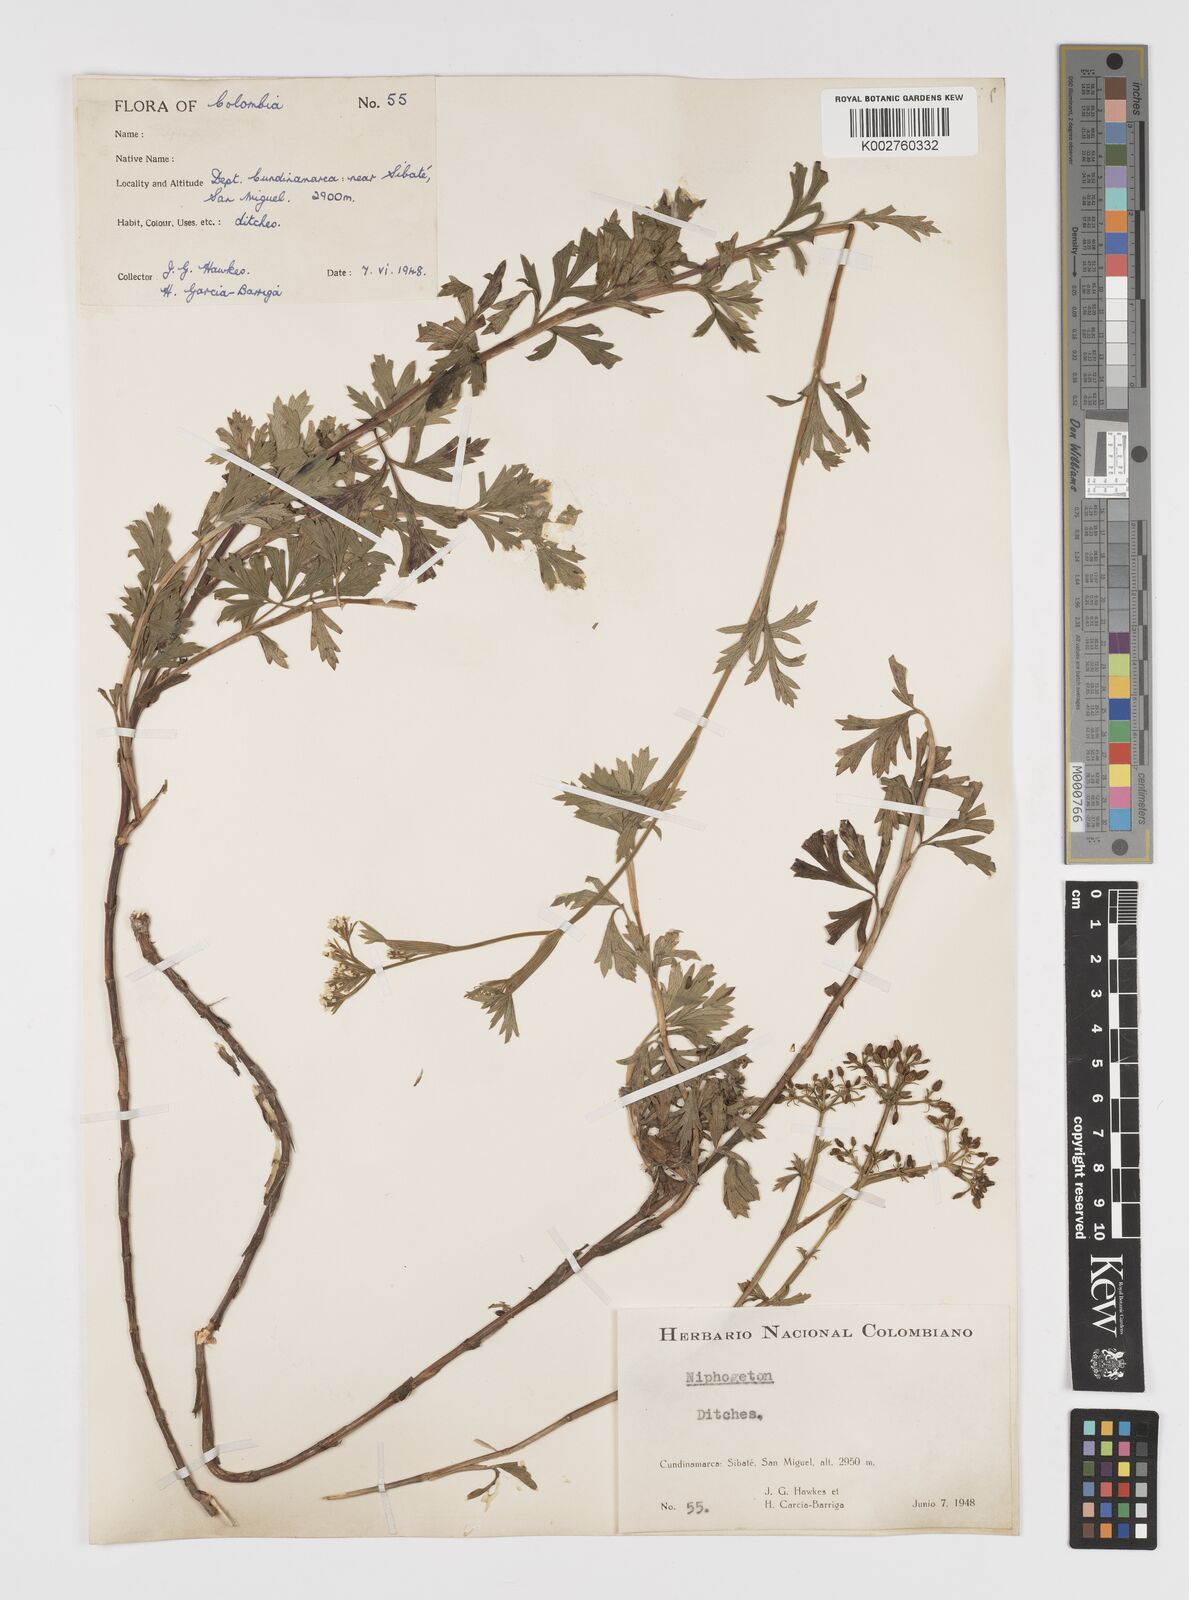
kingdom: Plantae
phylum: Tracheophyta
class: Magnoliopsida
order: Apiales
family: Apiaceae
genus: Niphogeton
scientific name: Niphogeton ternata
